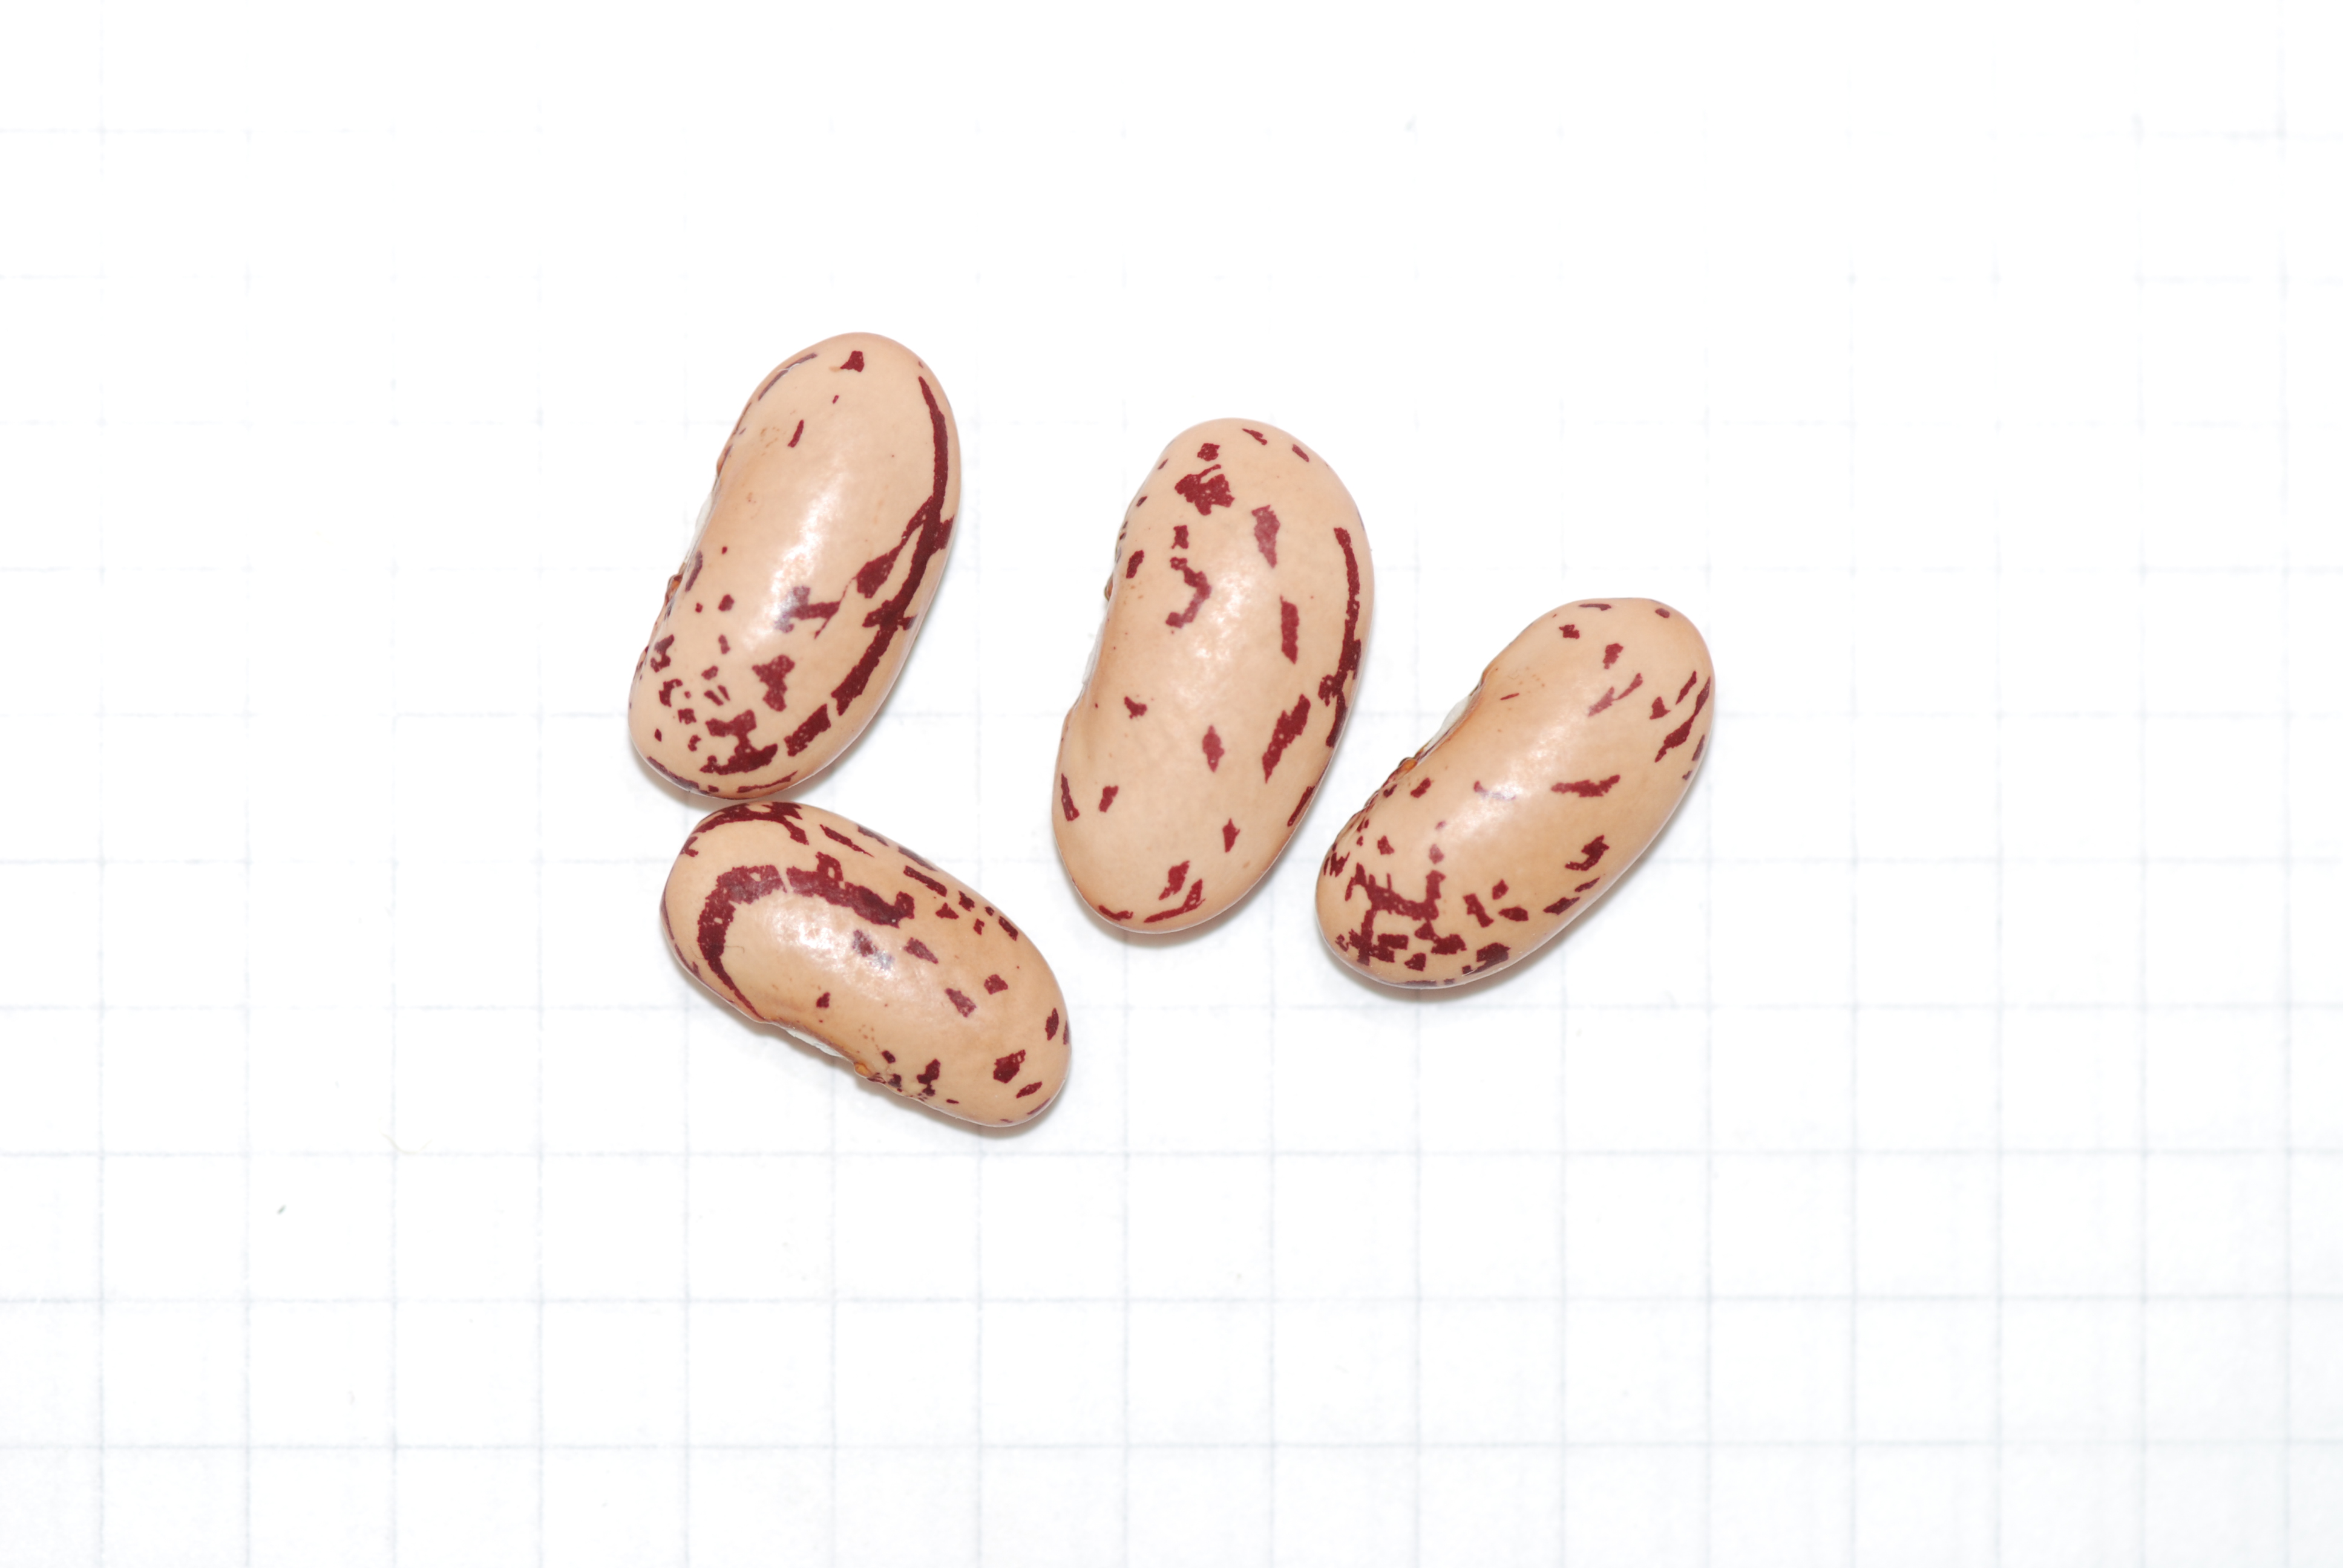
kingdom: Plantae
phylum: Tracheophyta
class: Magnoliopsida
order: Fabales
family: Fabaceae
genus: Phaseolus
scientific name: Phaseolus vulgaris
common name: Bean
